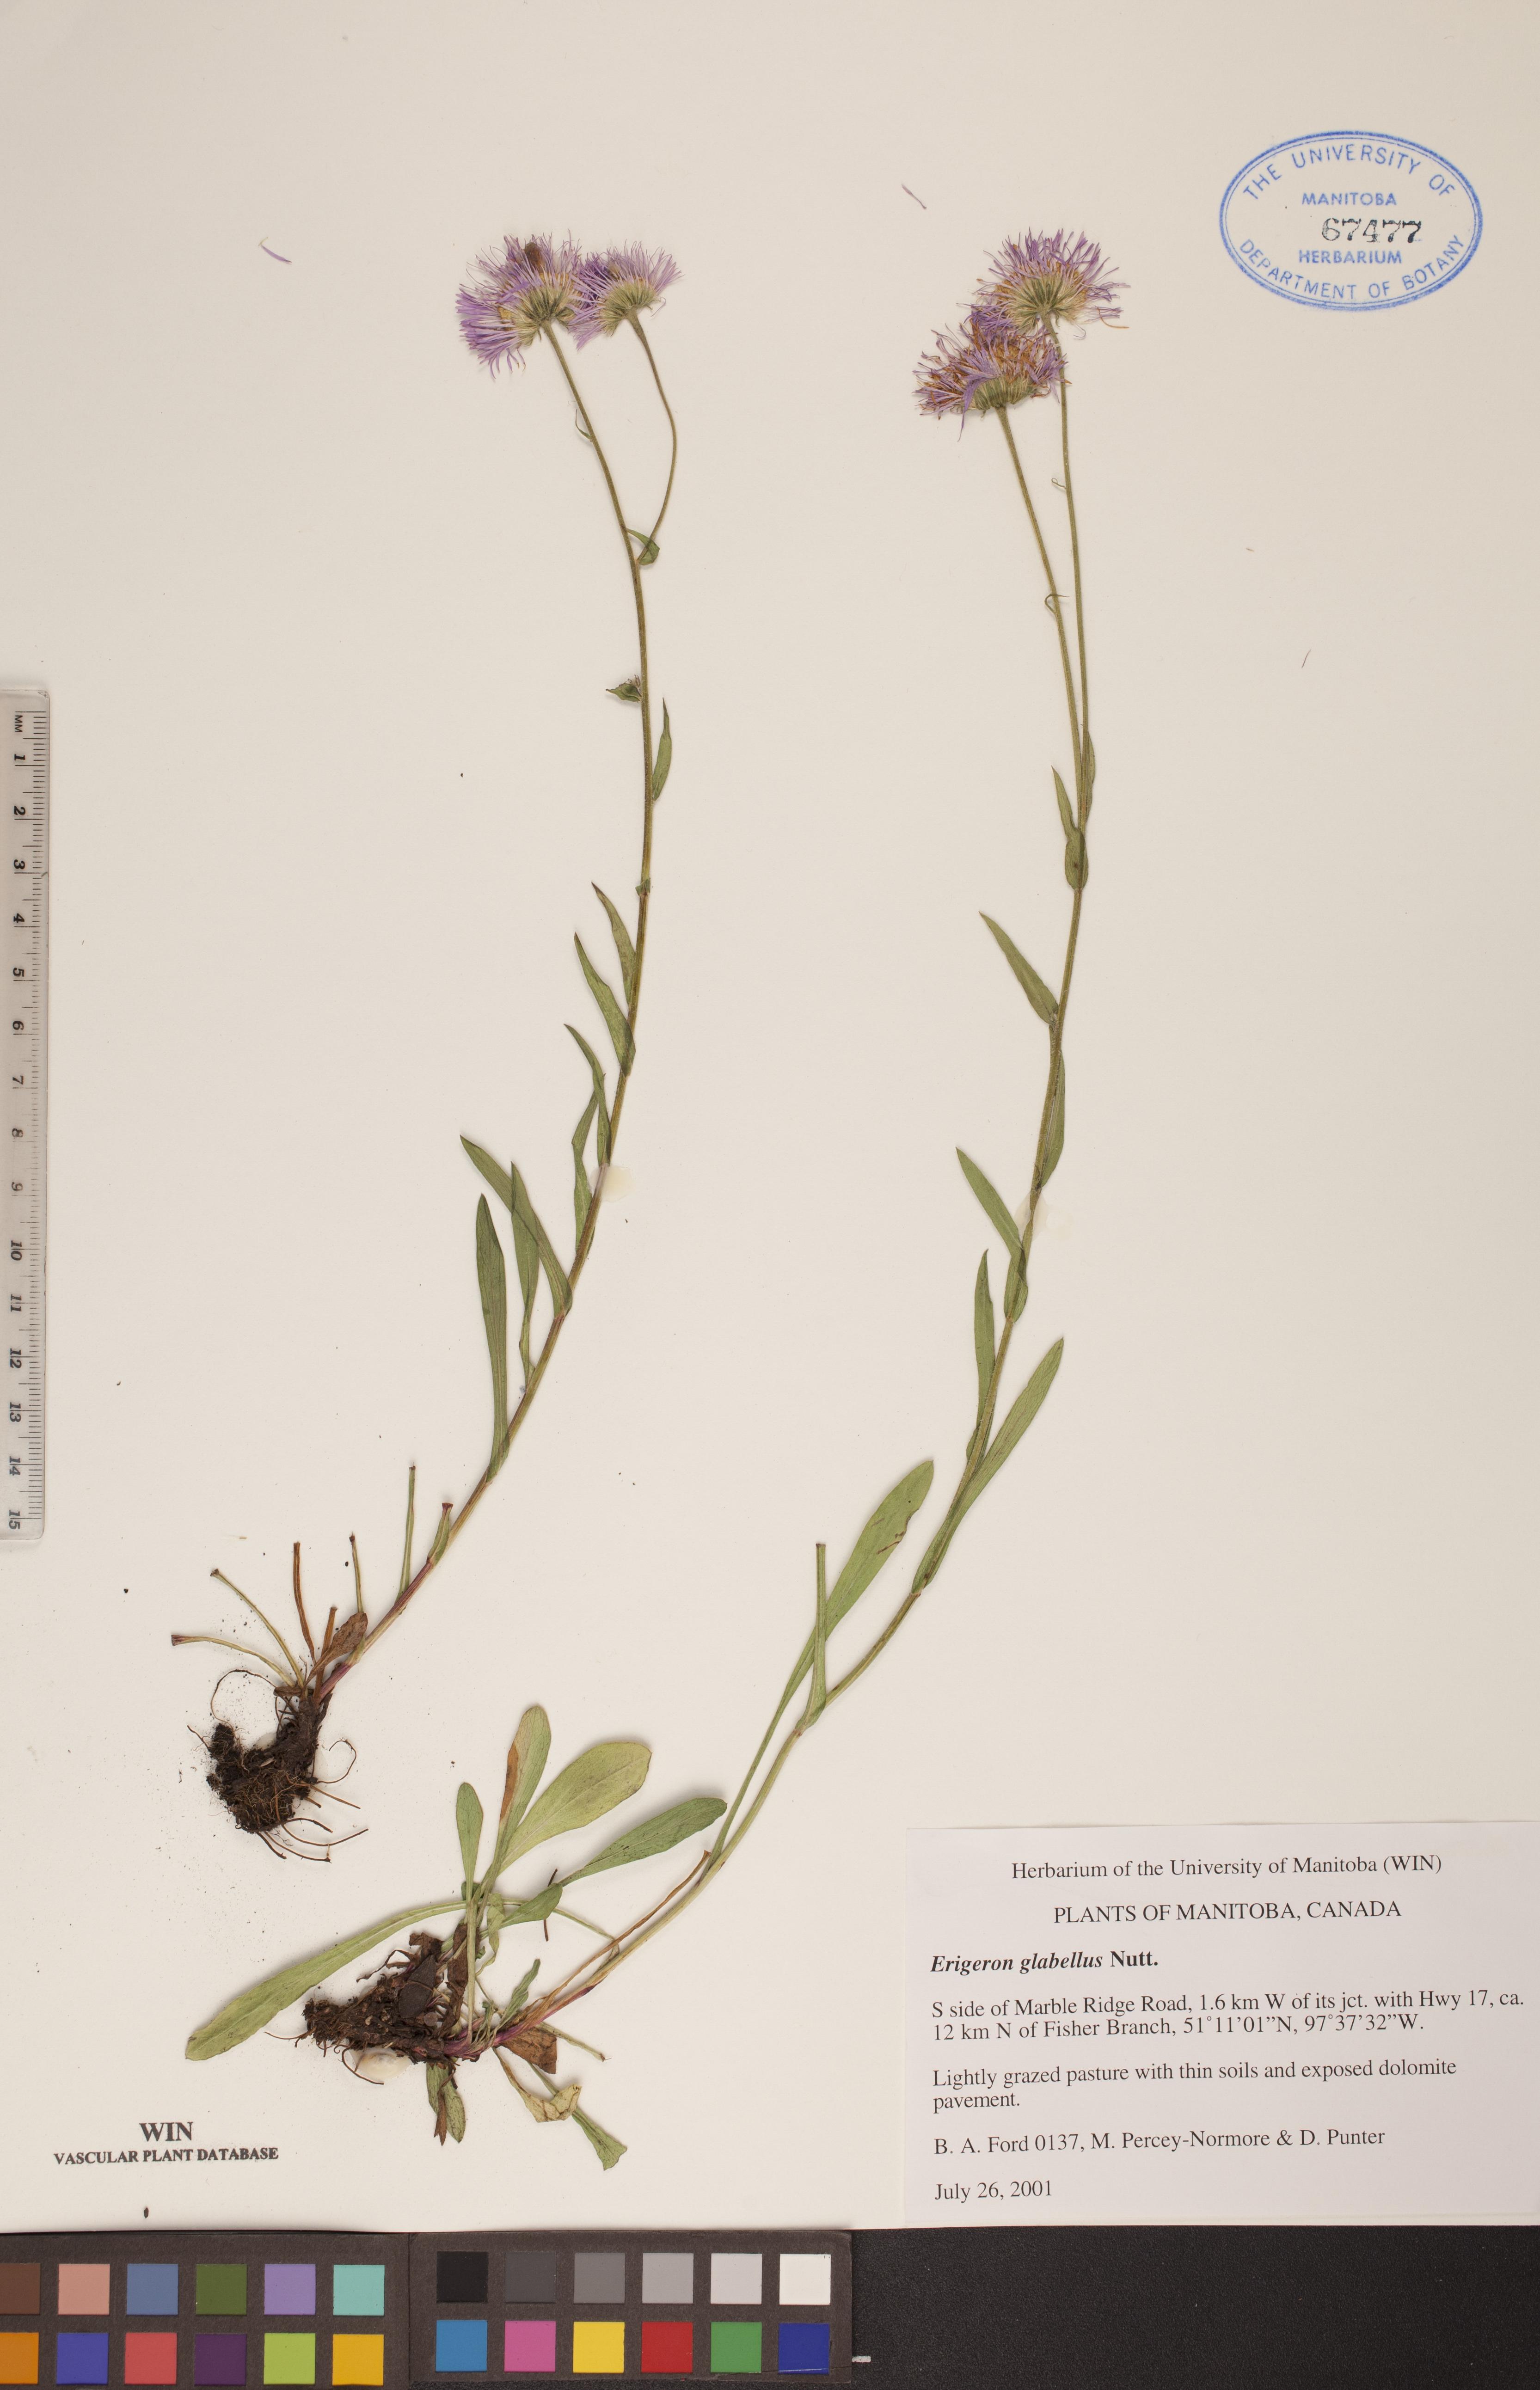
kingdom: Plantae
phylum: Tracheophyta
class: Magnoliopsida
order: Asterales
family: Asteraceae
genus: Erigeron
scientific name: Erigeron glabellus
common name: Smooth fleabane
